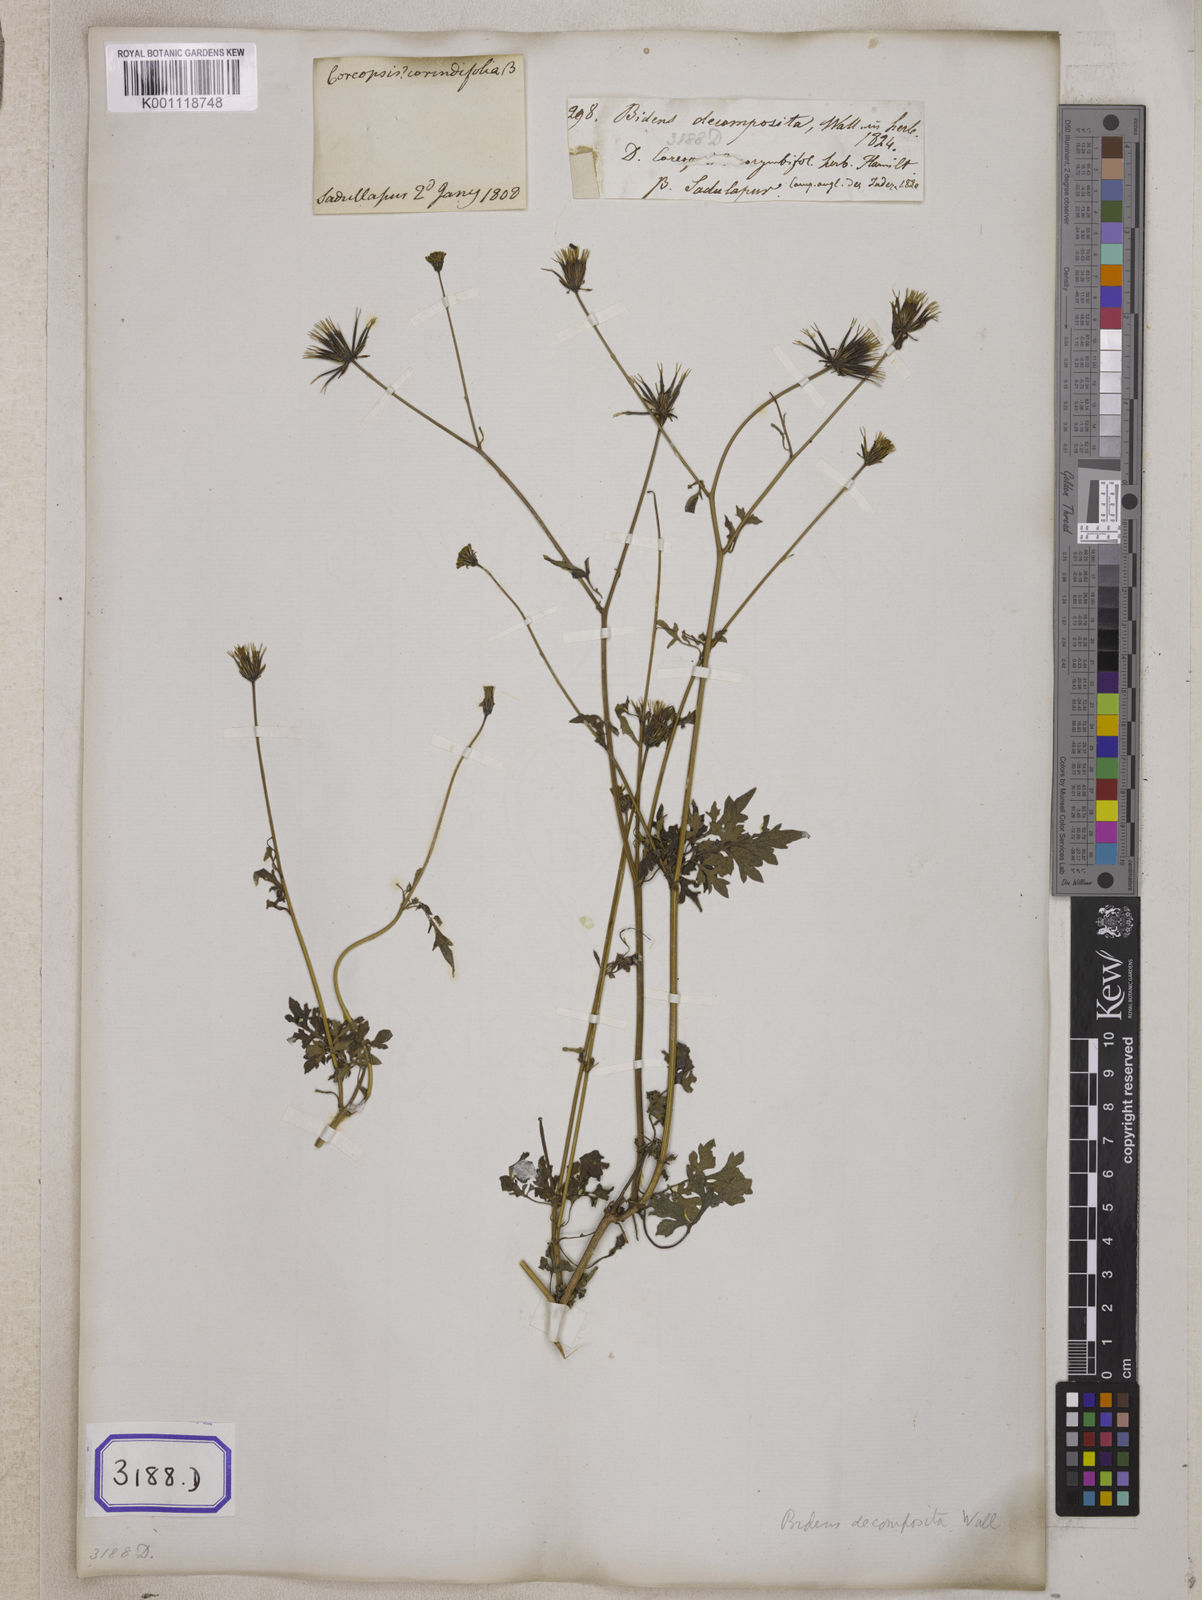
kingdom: Plantae
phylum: Tracheophyta
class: Magnoliopsida
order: Asterales
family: Asteraceae
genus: Bidens
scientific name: Bidens bipinnata
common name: Spanish-needles
